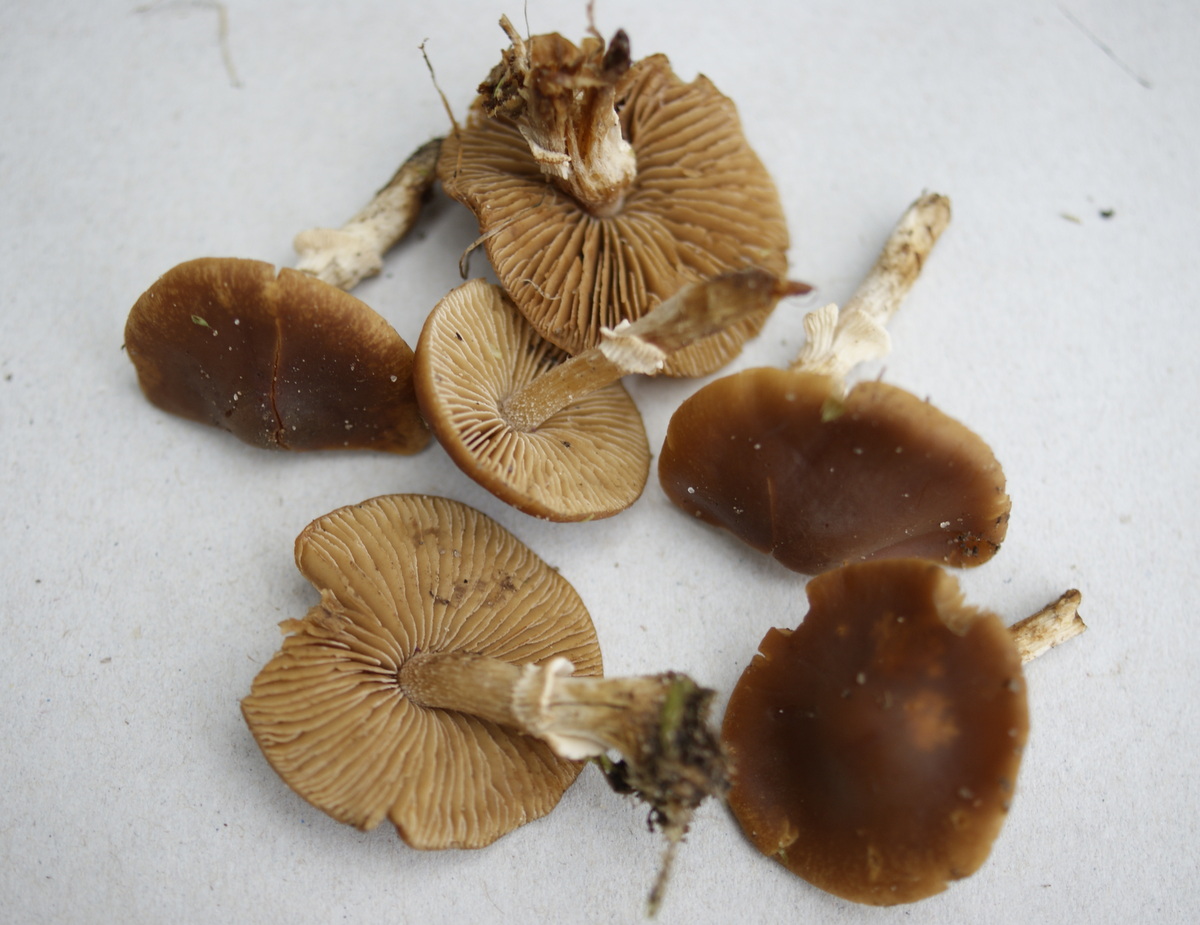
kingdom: Fungi
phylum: Basidiomycota
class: Agaricomycetes
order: Agaricales
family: Bolbitiaceae
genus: Conocybe
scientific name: Conocybe aporos
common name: tidlig dansehat
